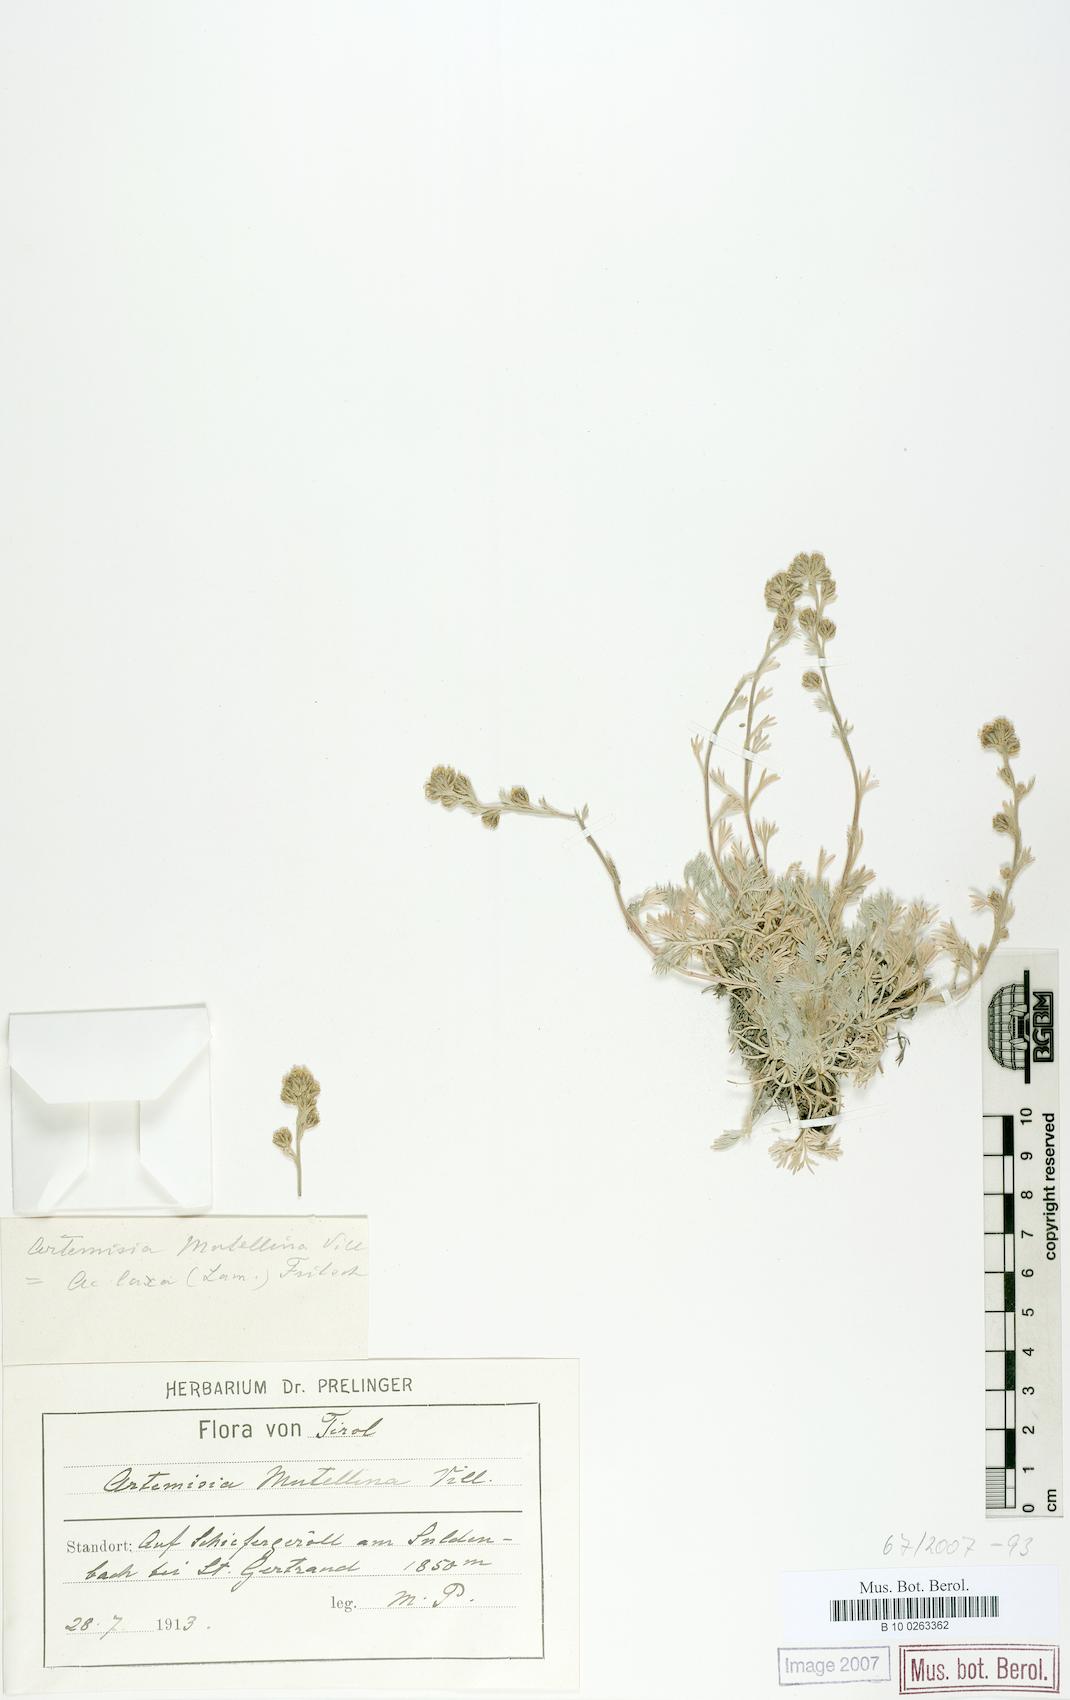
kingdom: Plantae
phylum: Tracheophyta
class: Magnoliopsida
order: Asterales
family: Asteraceae
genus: Artemisia
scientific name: Artemisia mutellina
